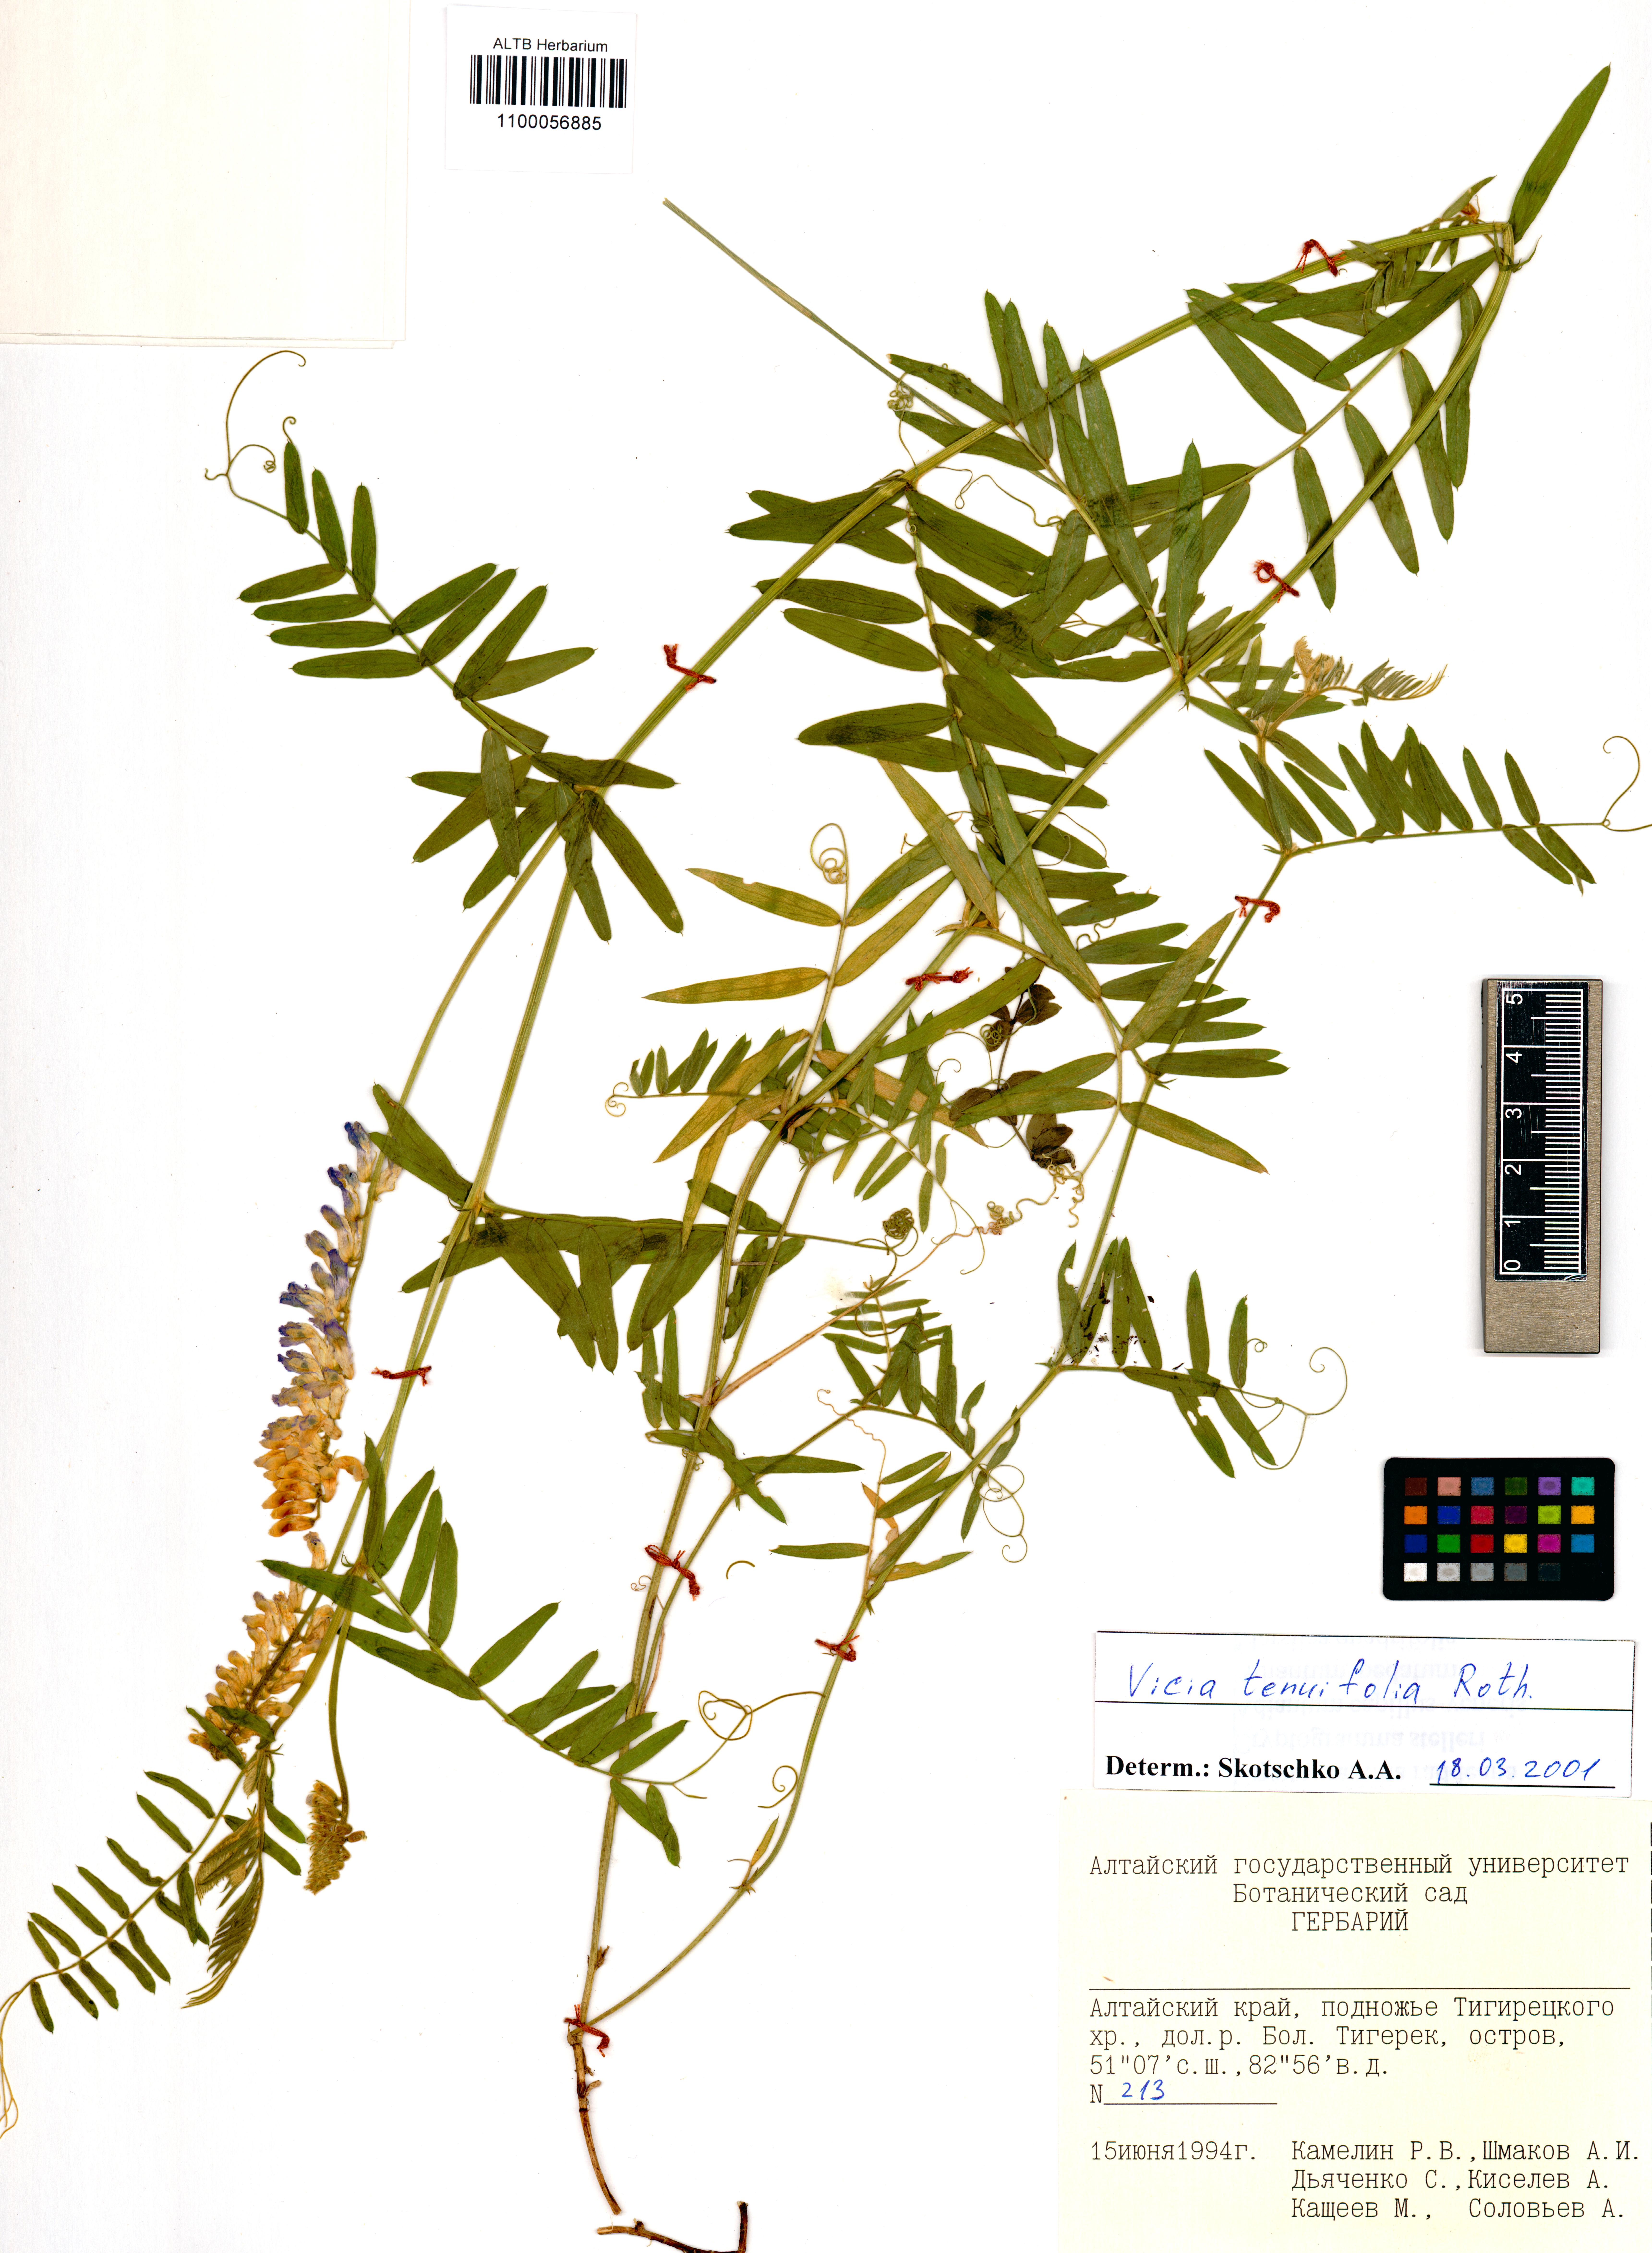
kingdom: Plantae
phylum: Tracheophyta
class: Magnoliopsida
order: Fabales
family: Fabaceae
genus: Vicia
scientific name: Vicia tenuifolia
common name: Fine-leaved vetch
